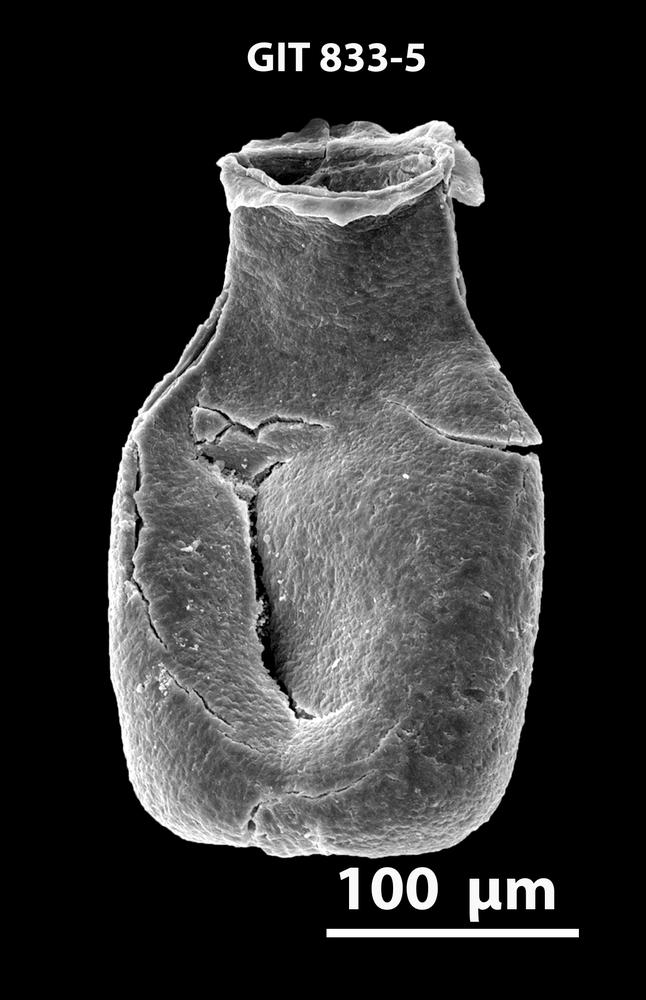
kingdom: Animalia
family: Lagenochitinidae
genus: Lagenochitina
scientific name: Lagenochitina
